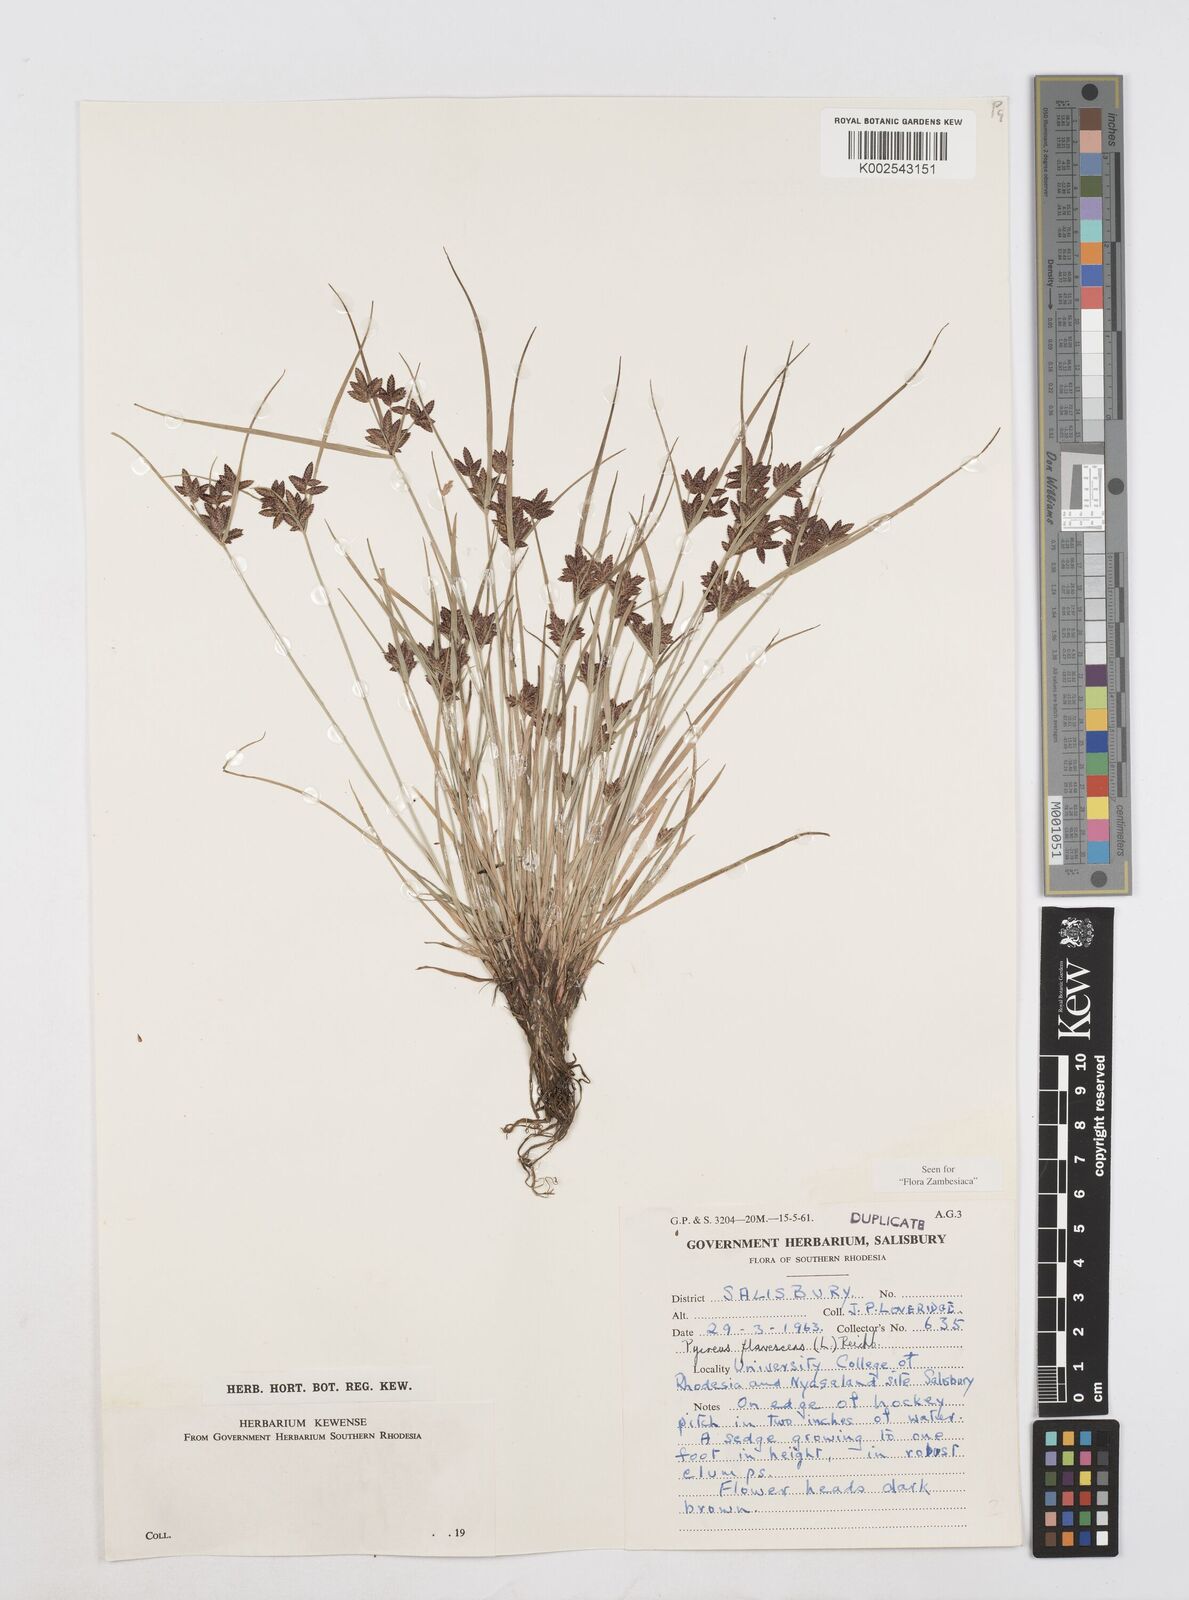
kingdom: Plantae
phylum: Tracheophyta
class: Liliopsida
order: Poales
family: Cyperaceae
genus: Cyperus
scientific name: Cyperus flavescens
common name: Yellow galingale
